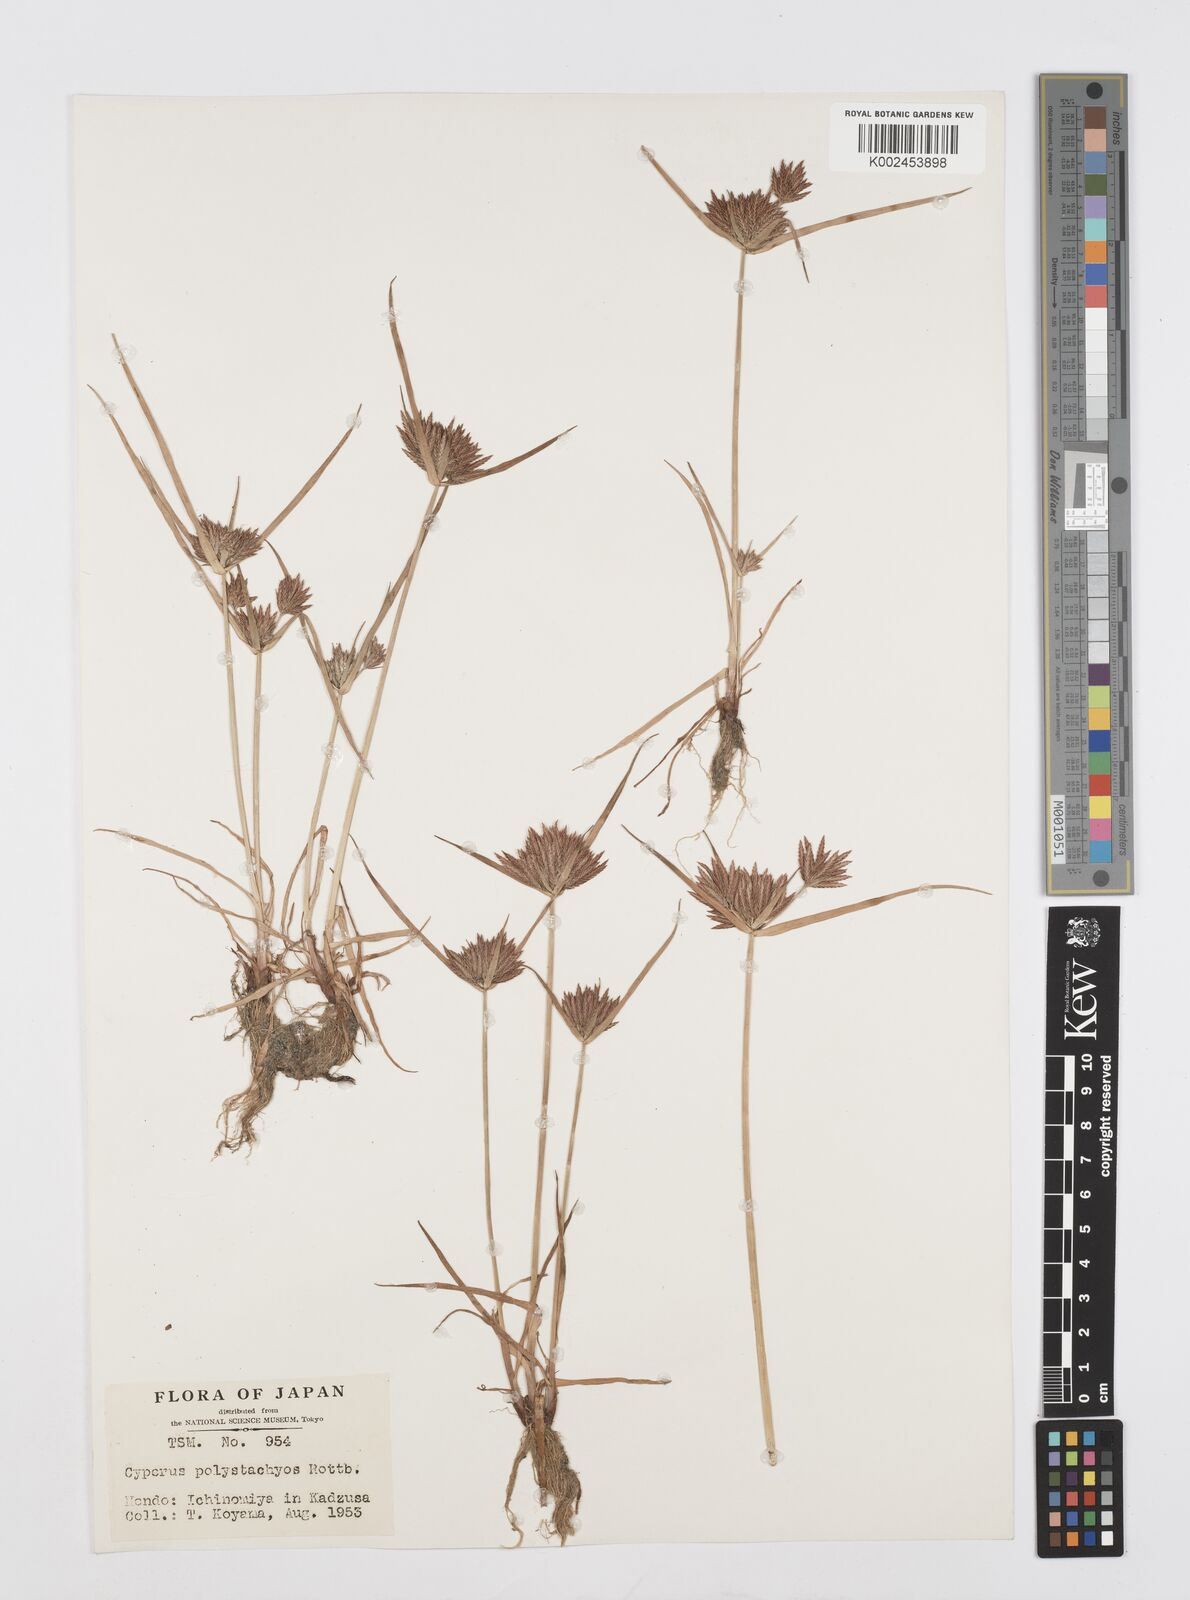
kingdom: Plantae
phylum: Tracheophyta
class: Liliopsida
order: Poales
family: Cyperaceae
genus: Cyperus
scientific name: Cyperus polystachyos
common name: Bunchy flat sedge
